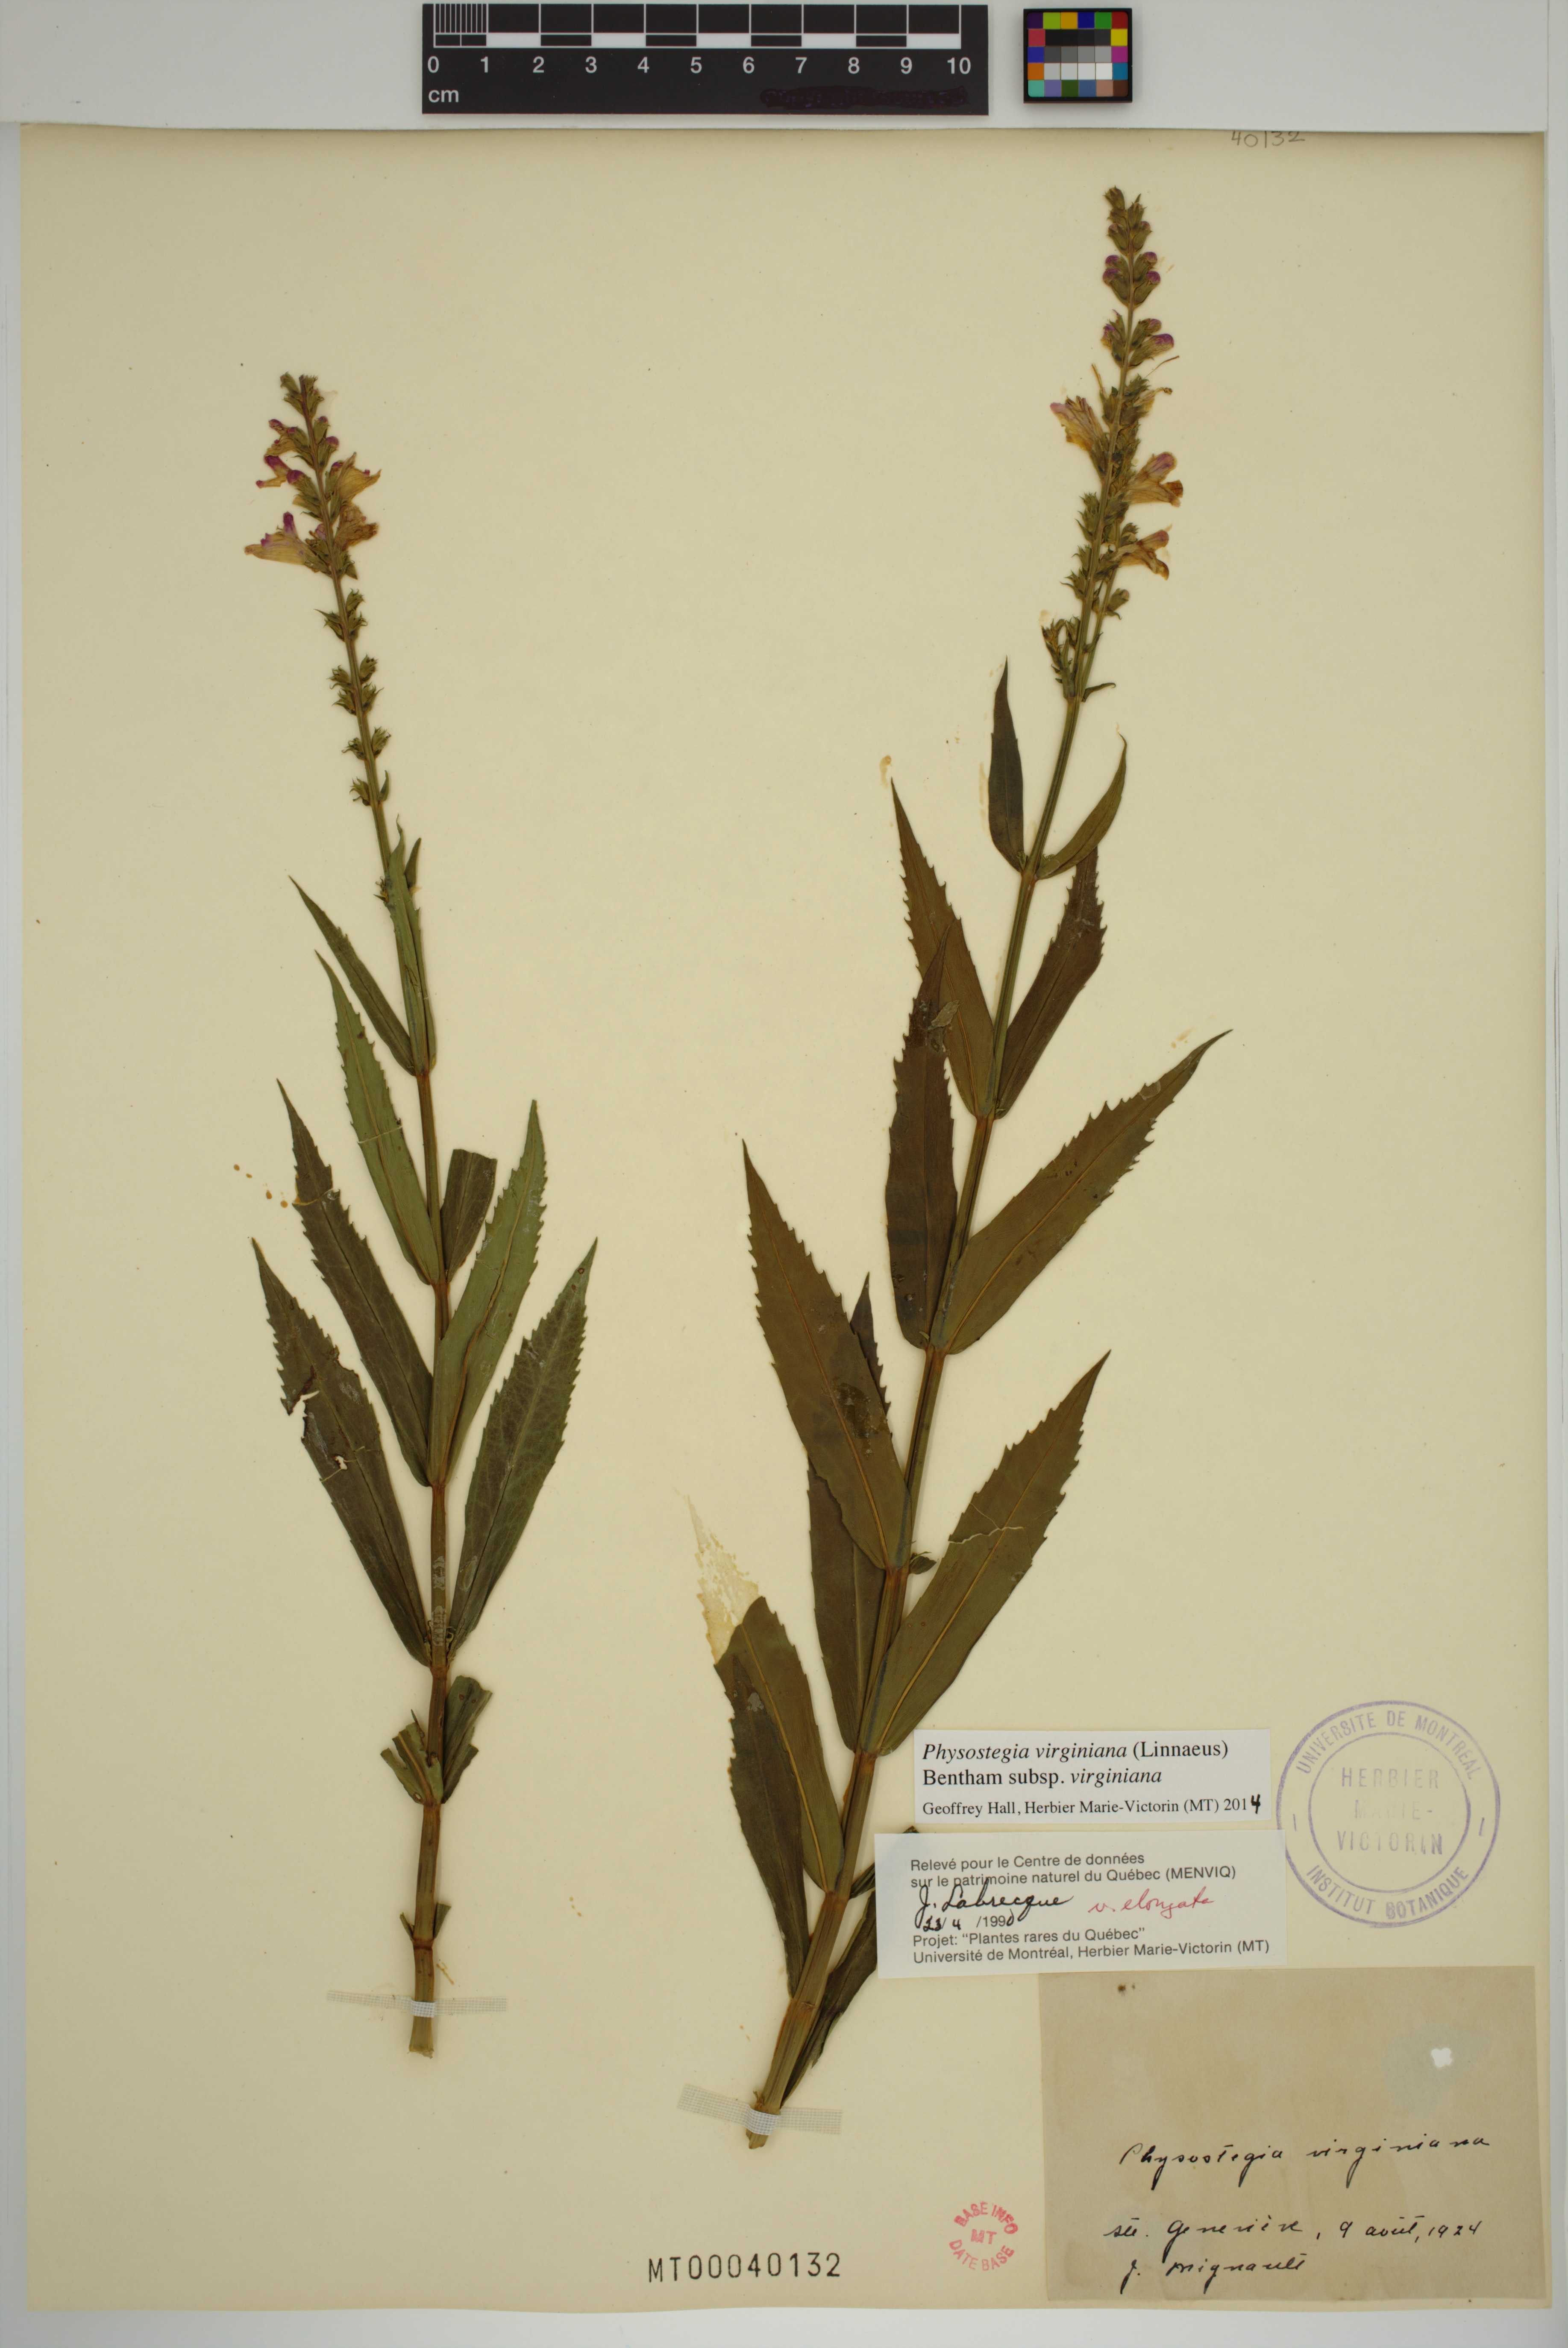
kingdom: Plantae
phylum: Tracheophyta
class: Magnoliopsida
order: Lamiales
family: Lamiaceae
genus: Physostegia
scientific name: Physostegia virginiana
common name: Obedient-plant
